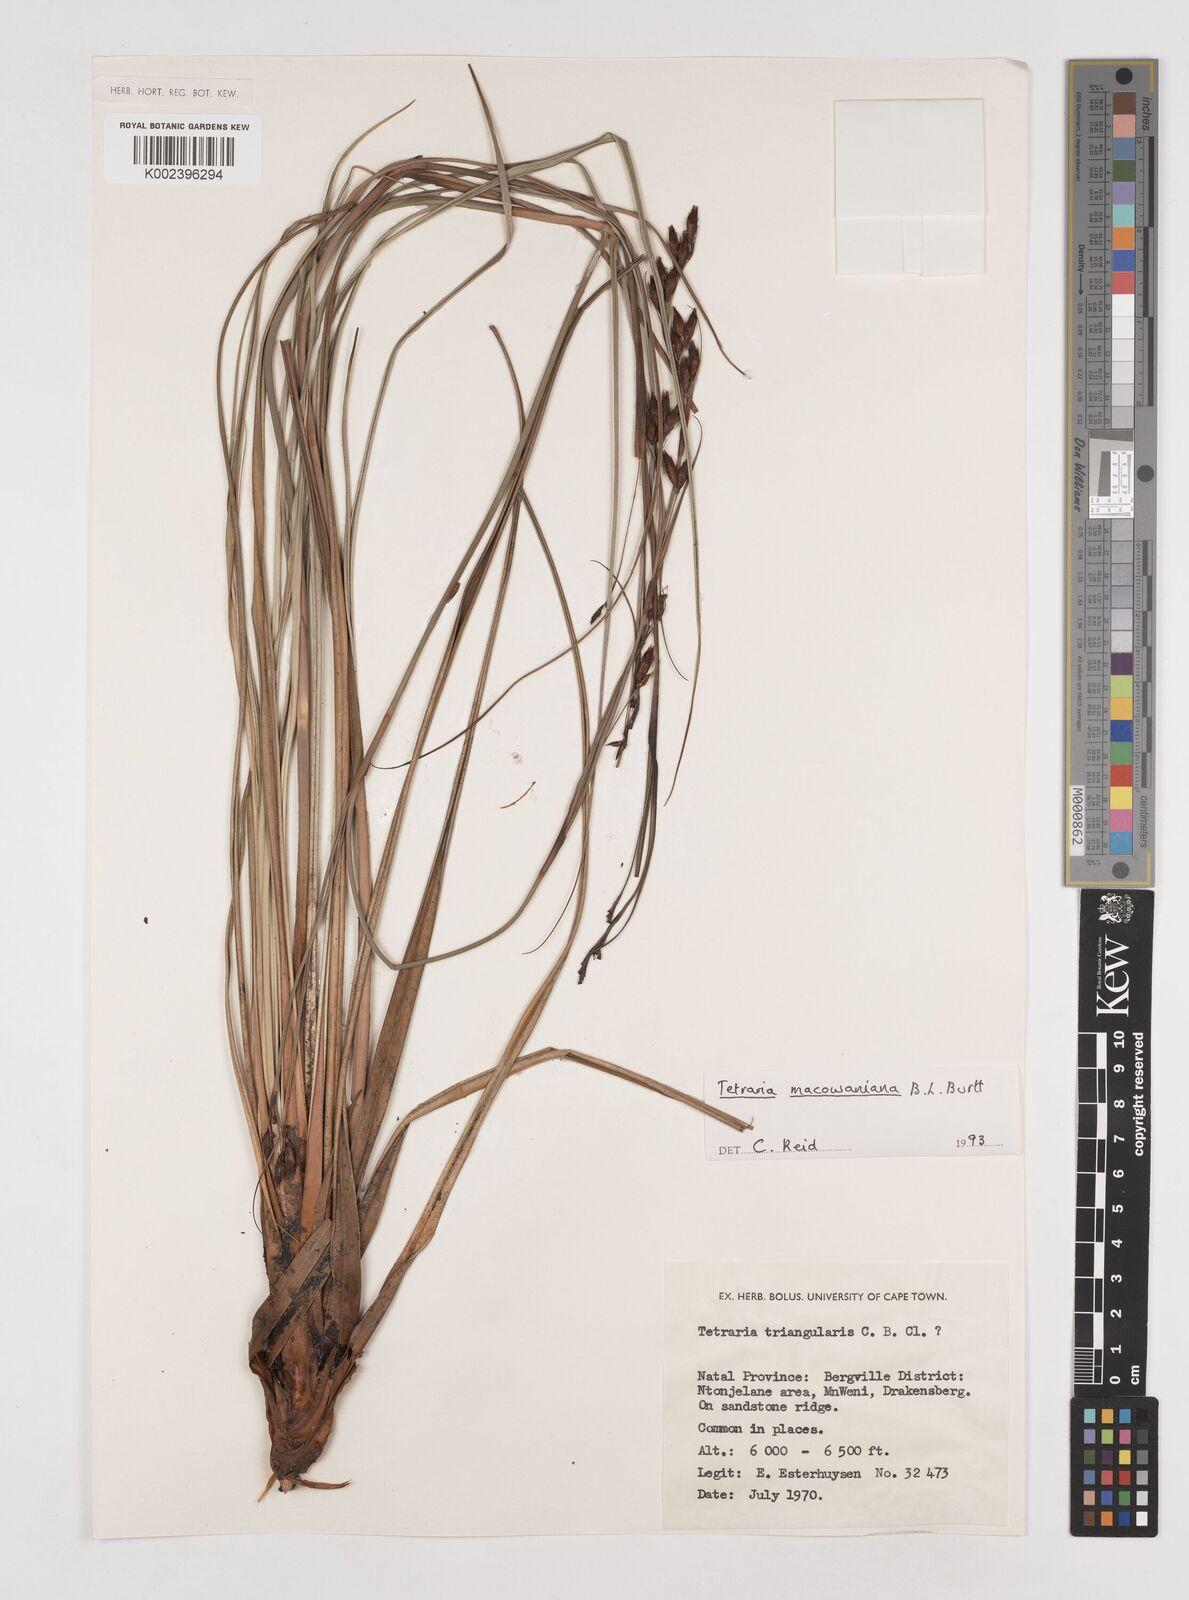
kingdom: Plantae
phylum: Tracheophyta
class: Liliopsida
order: Poales
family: Cyperaceae
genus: Tetraria
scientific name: Tetraria macowaniana
